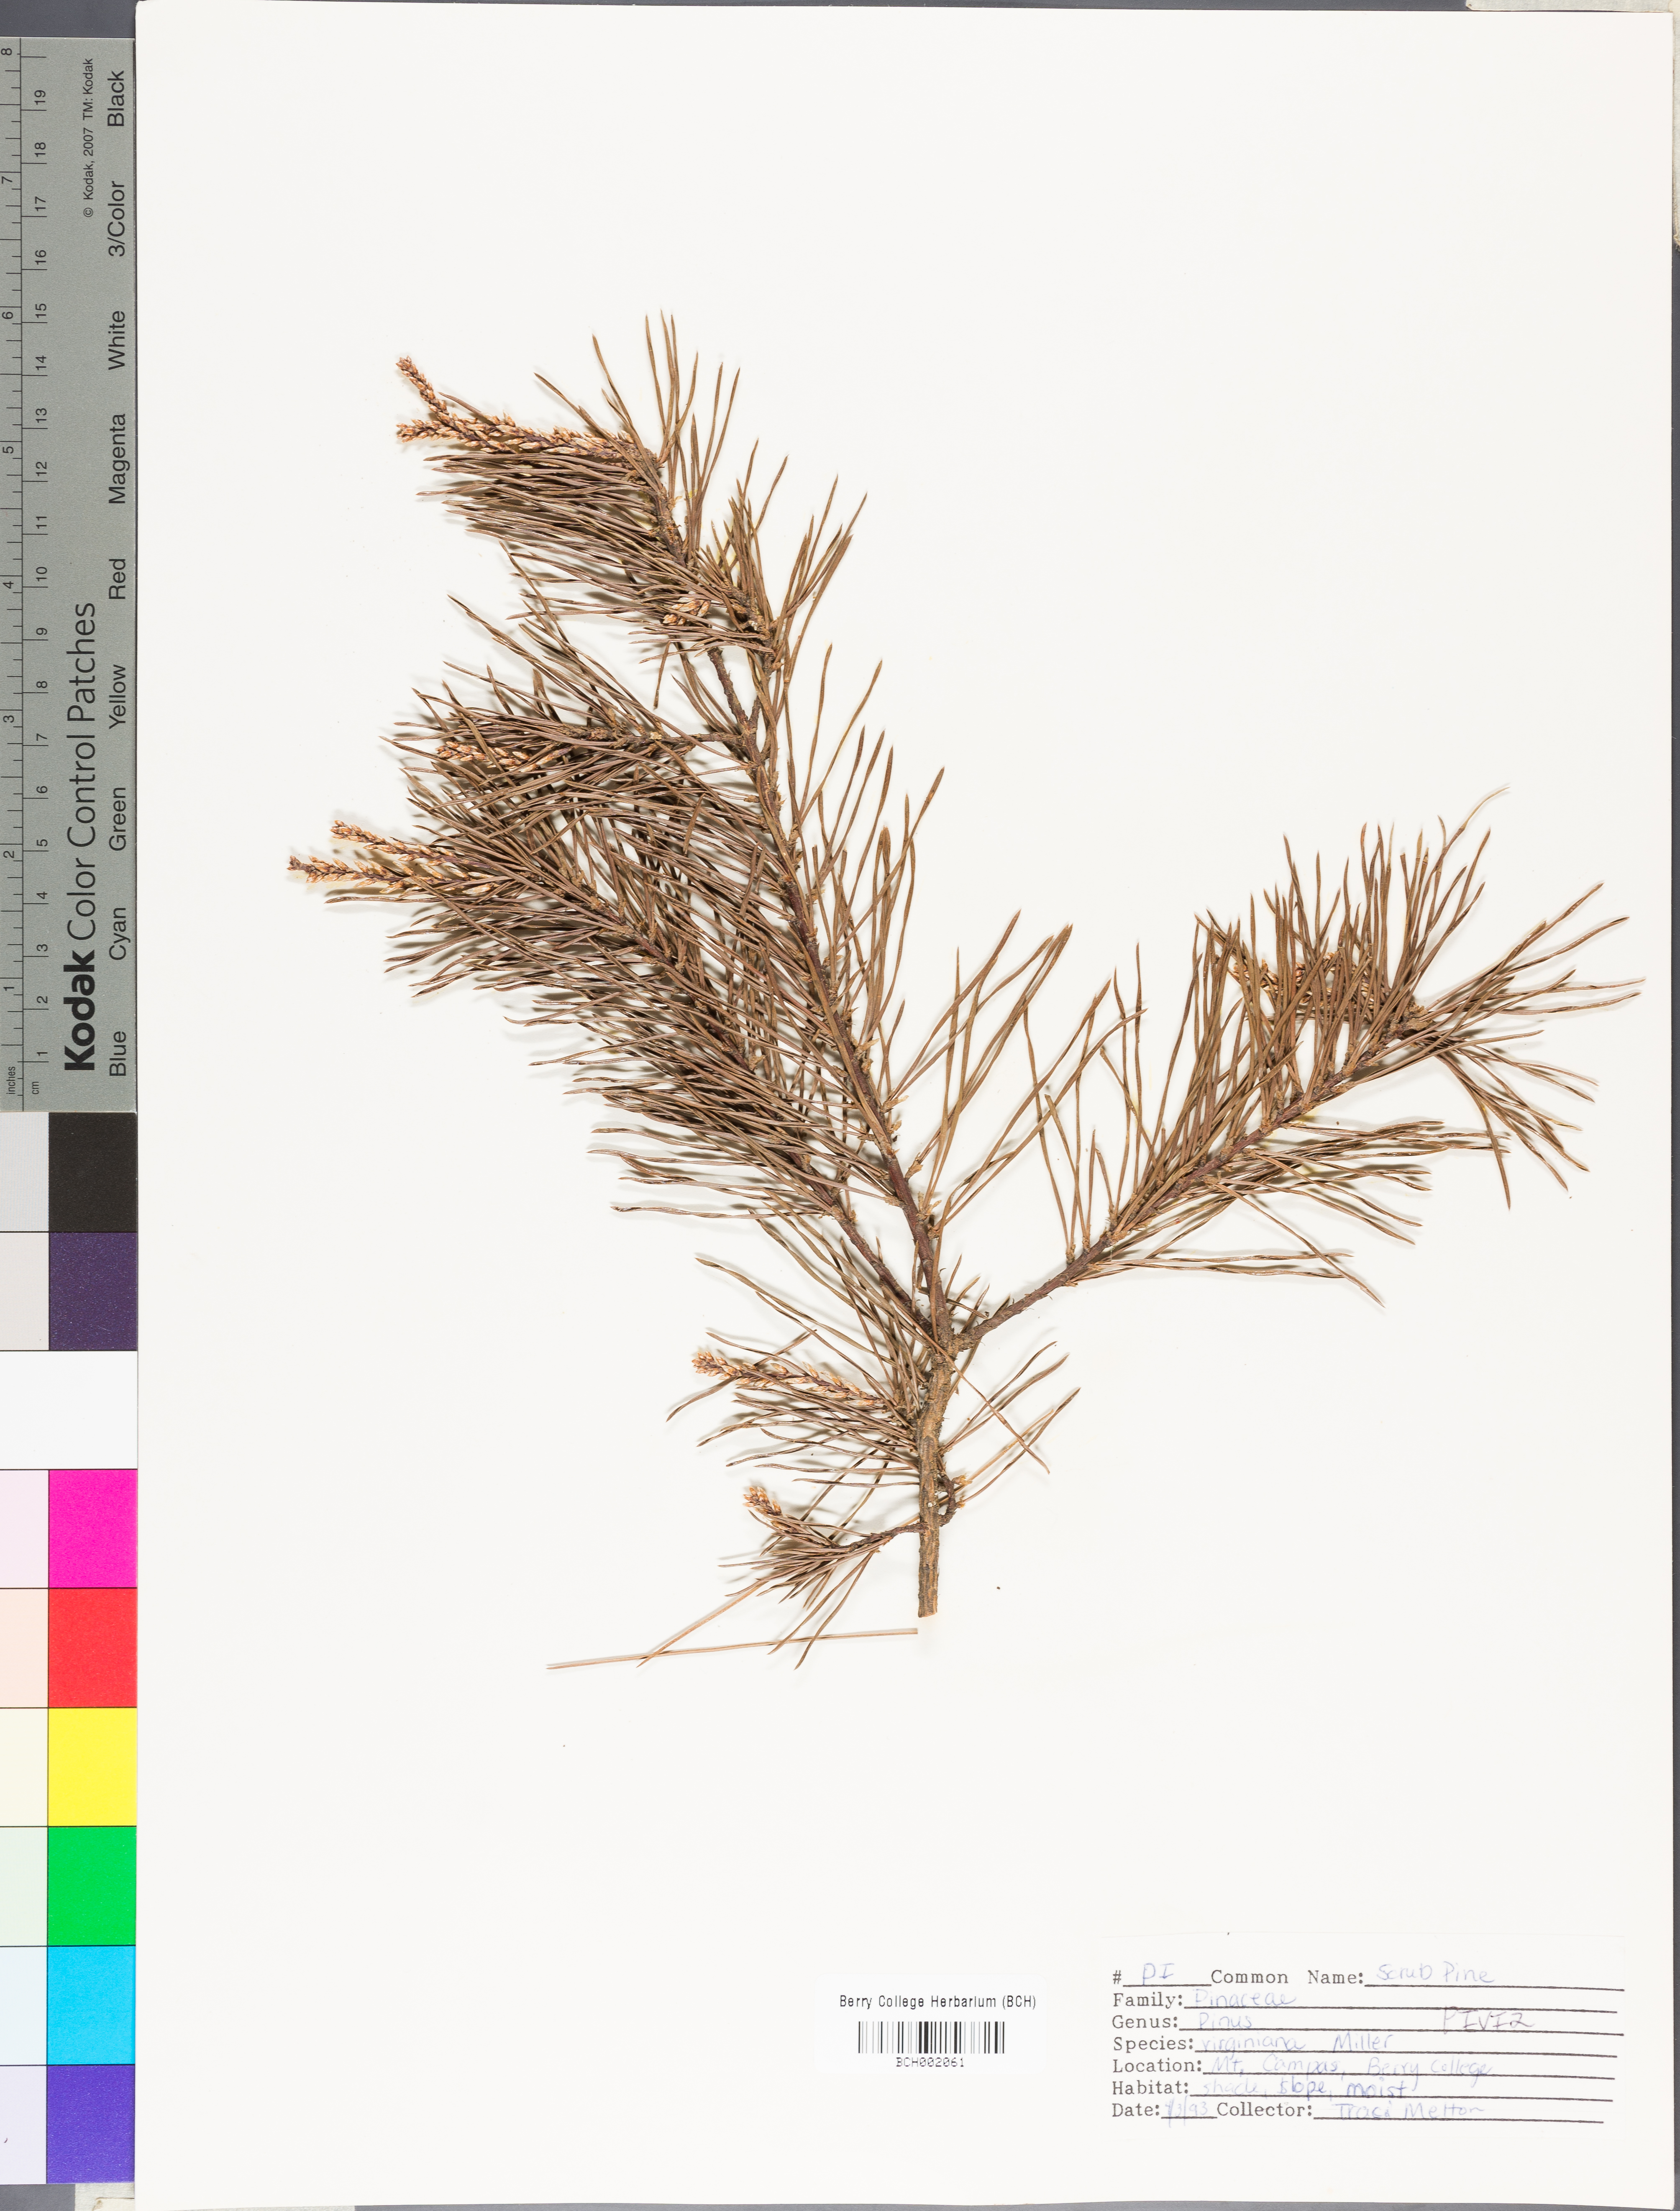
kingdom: Plantae
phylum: Tracheophyta
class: Pinopsida
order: Pinales
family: Pinaceae
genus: Pinus
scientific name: Pinus virginiana
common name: Scrub pine
